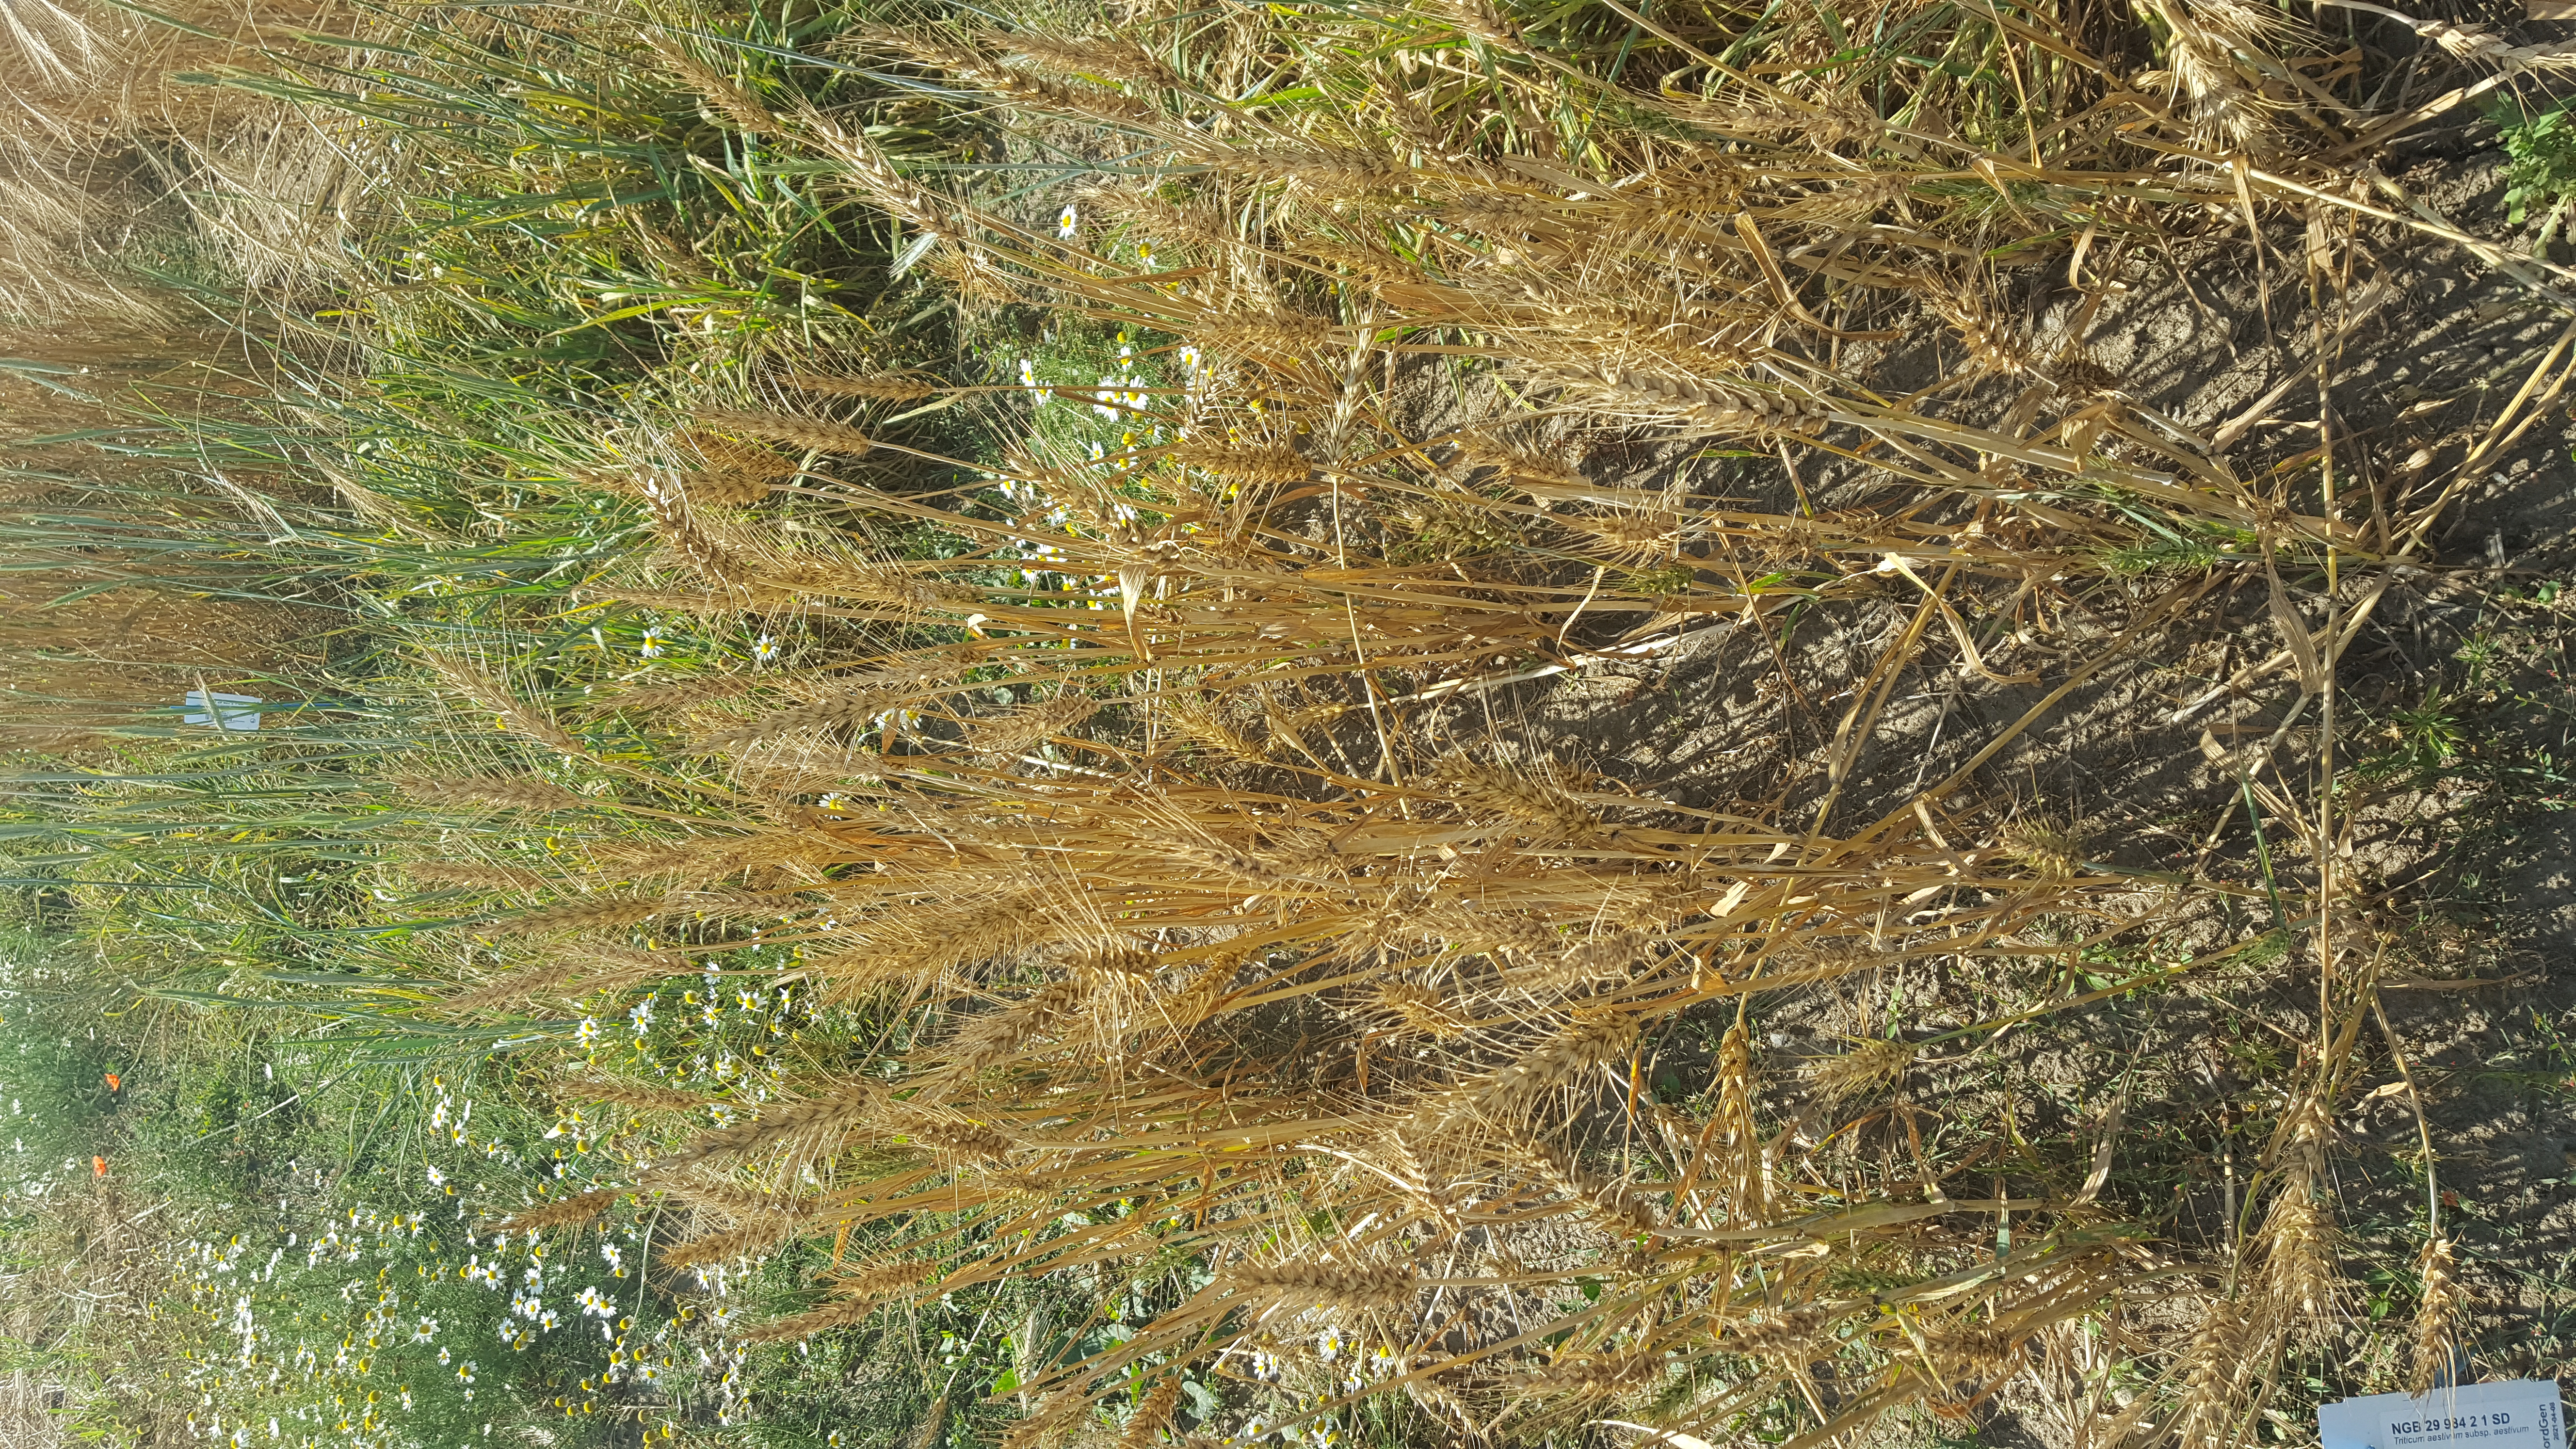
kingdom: Plantae
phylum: Tracheophyta
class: Liliopsida
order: Poales
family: Poaceae
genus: Triticum
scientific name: Triticum aestivum
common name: Common wheat
